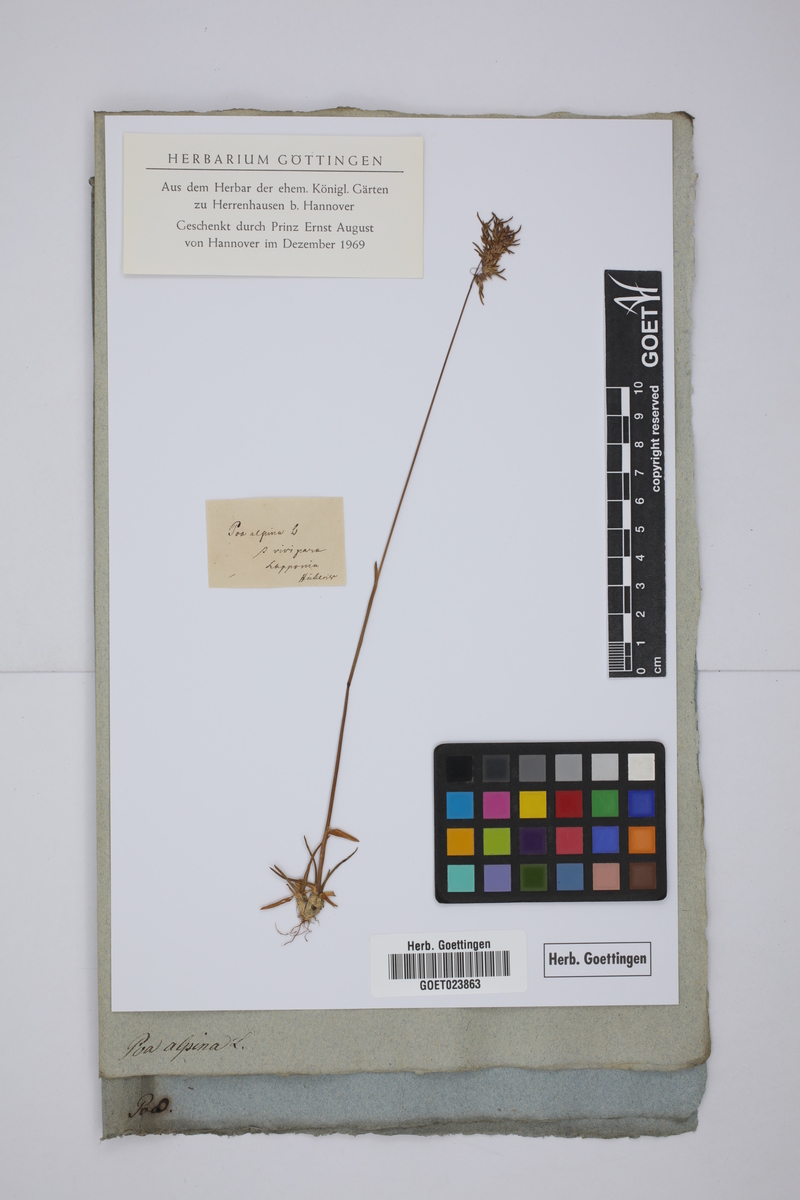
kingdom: Plantae
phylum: Tracheophyta
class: Liliopsida
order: Poales
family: Poaceae
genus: Poa
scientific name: Poa alpina
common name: Alpine bluegrass
